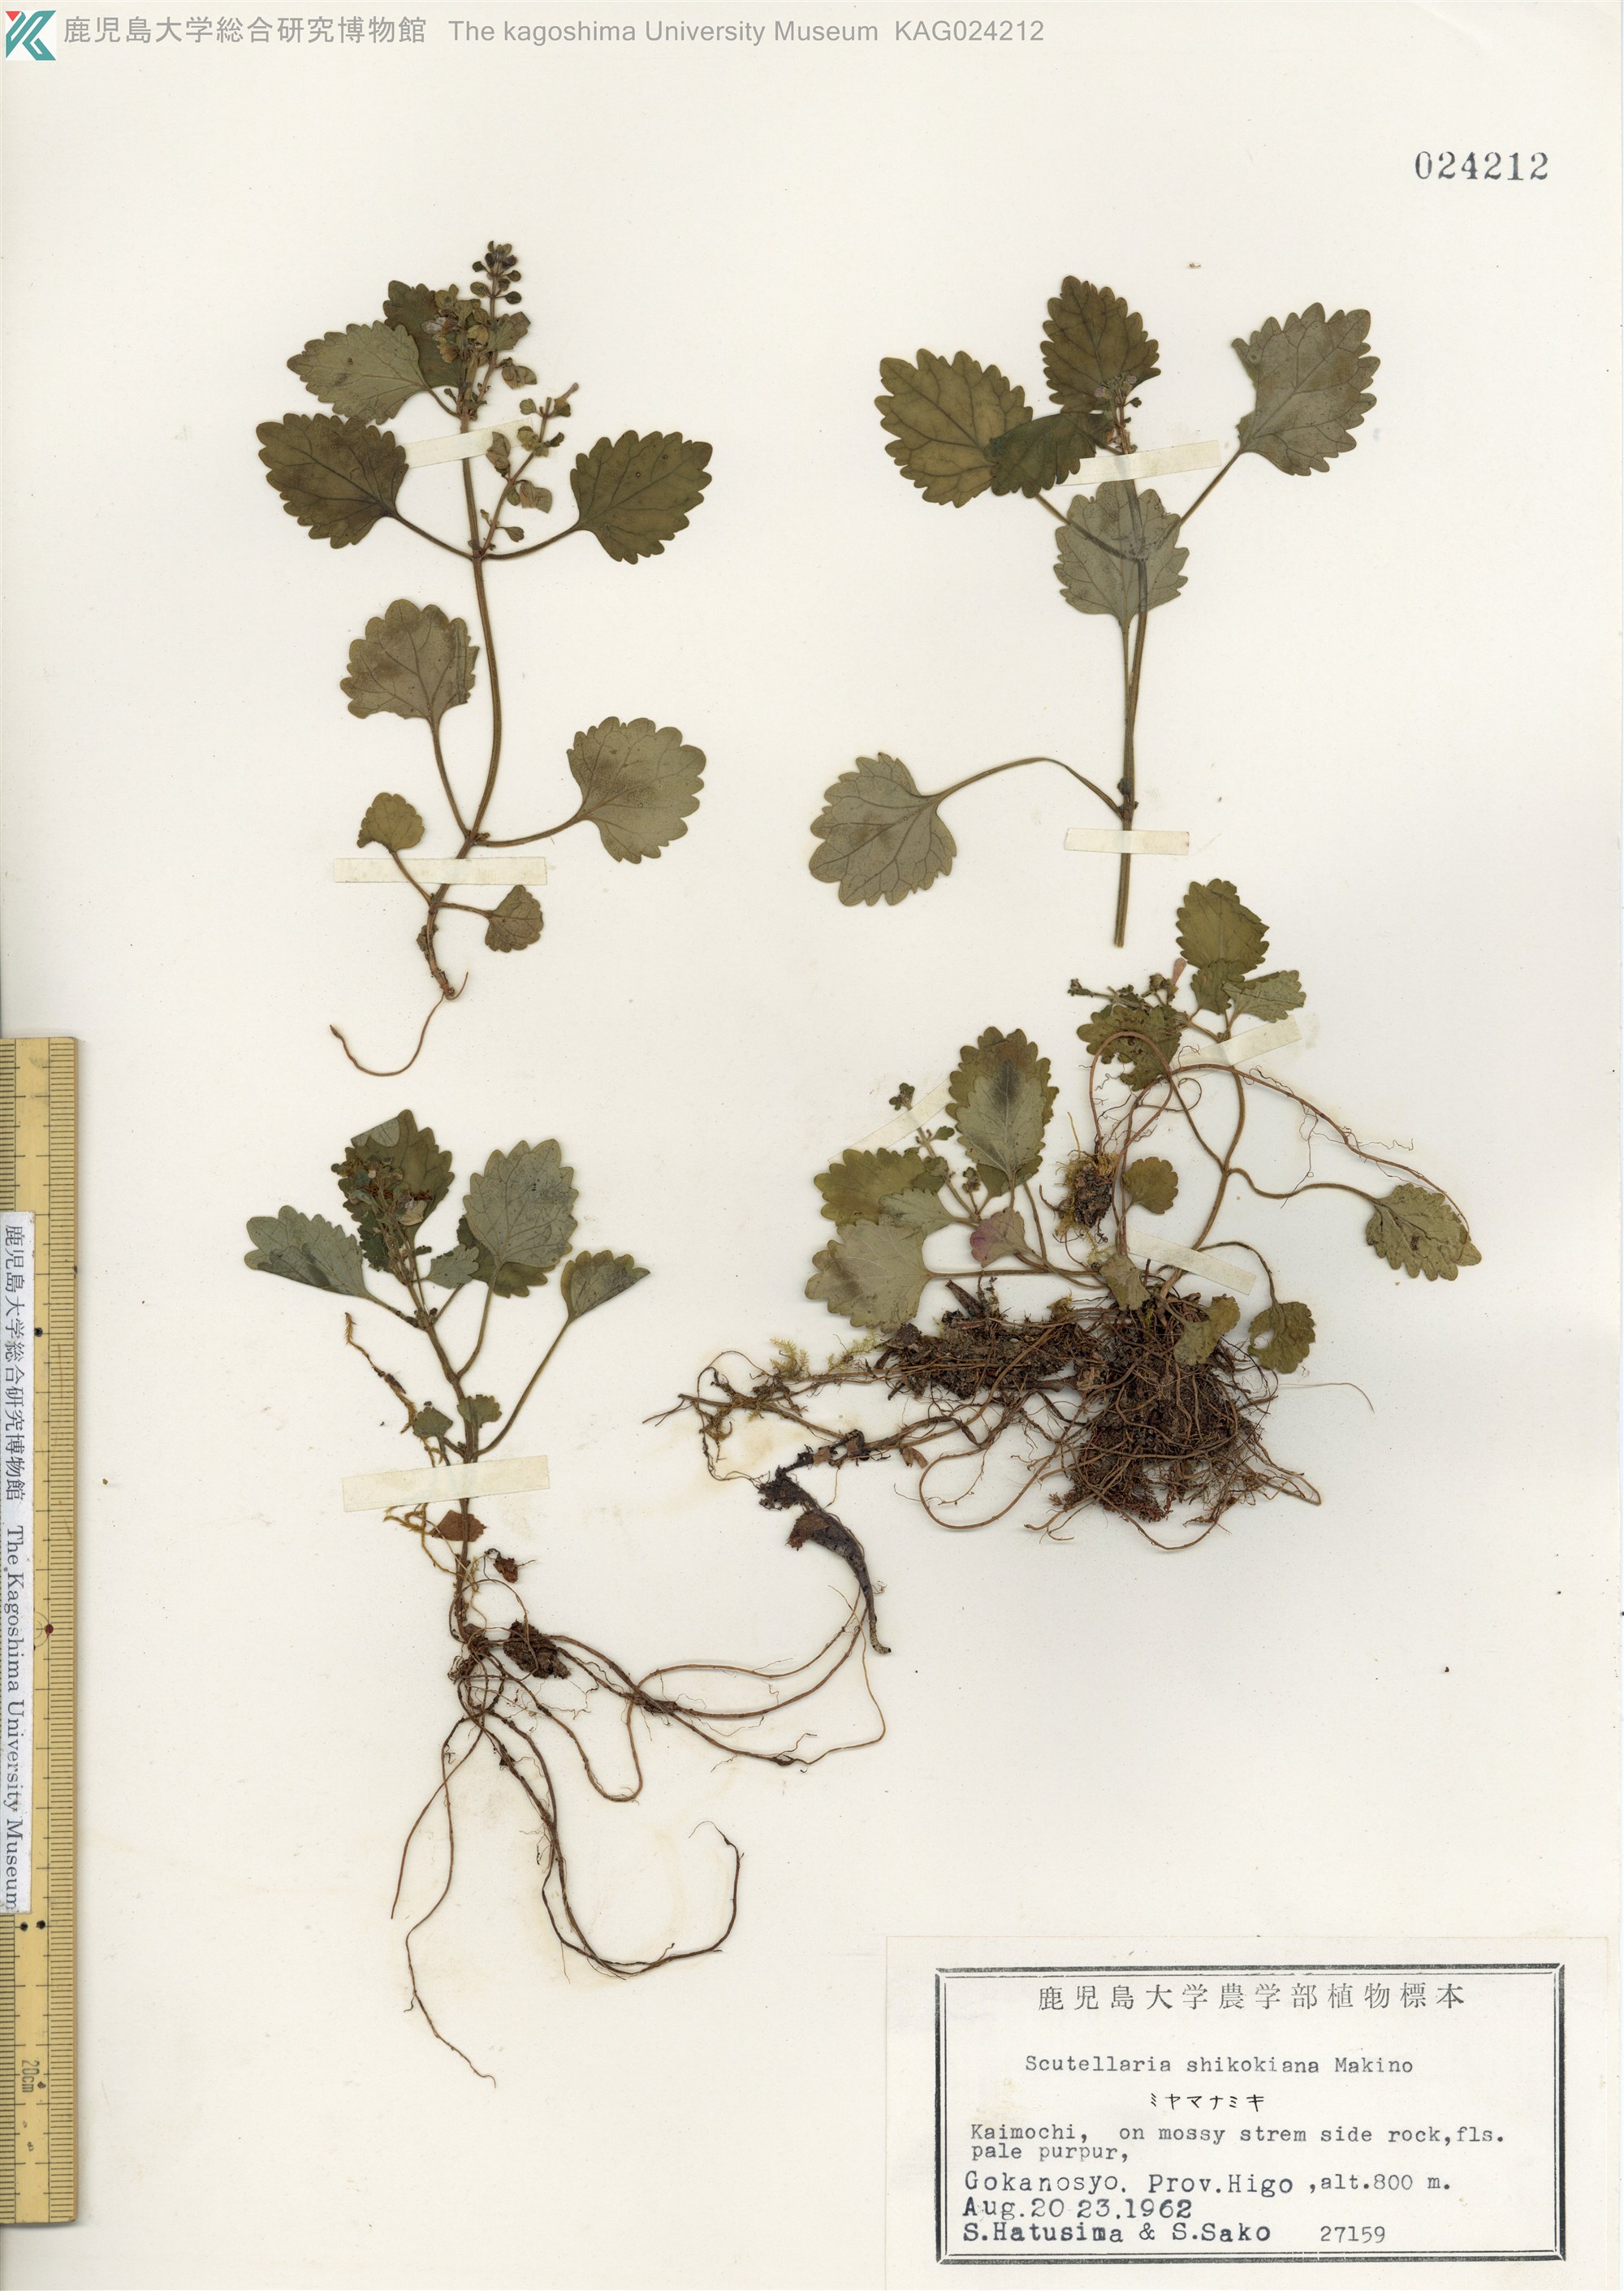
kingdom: Plantae
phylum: Tracheophyta
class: Magnoliopsida
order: Lamiales
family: Lamiaceae
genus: Scutellaria
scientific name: Scutellaria laeteviolacea
